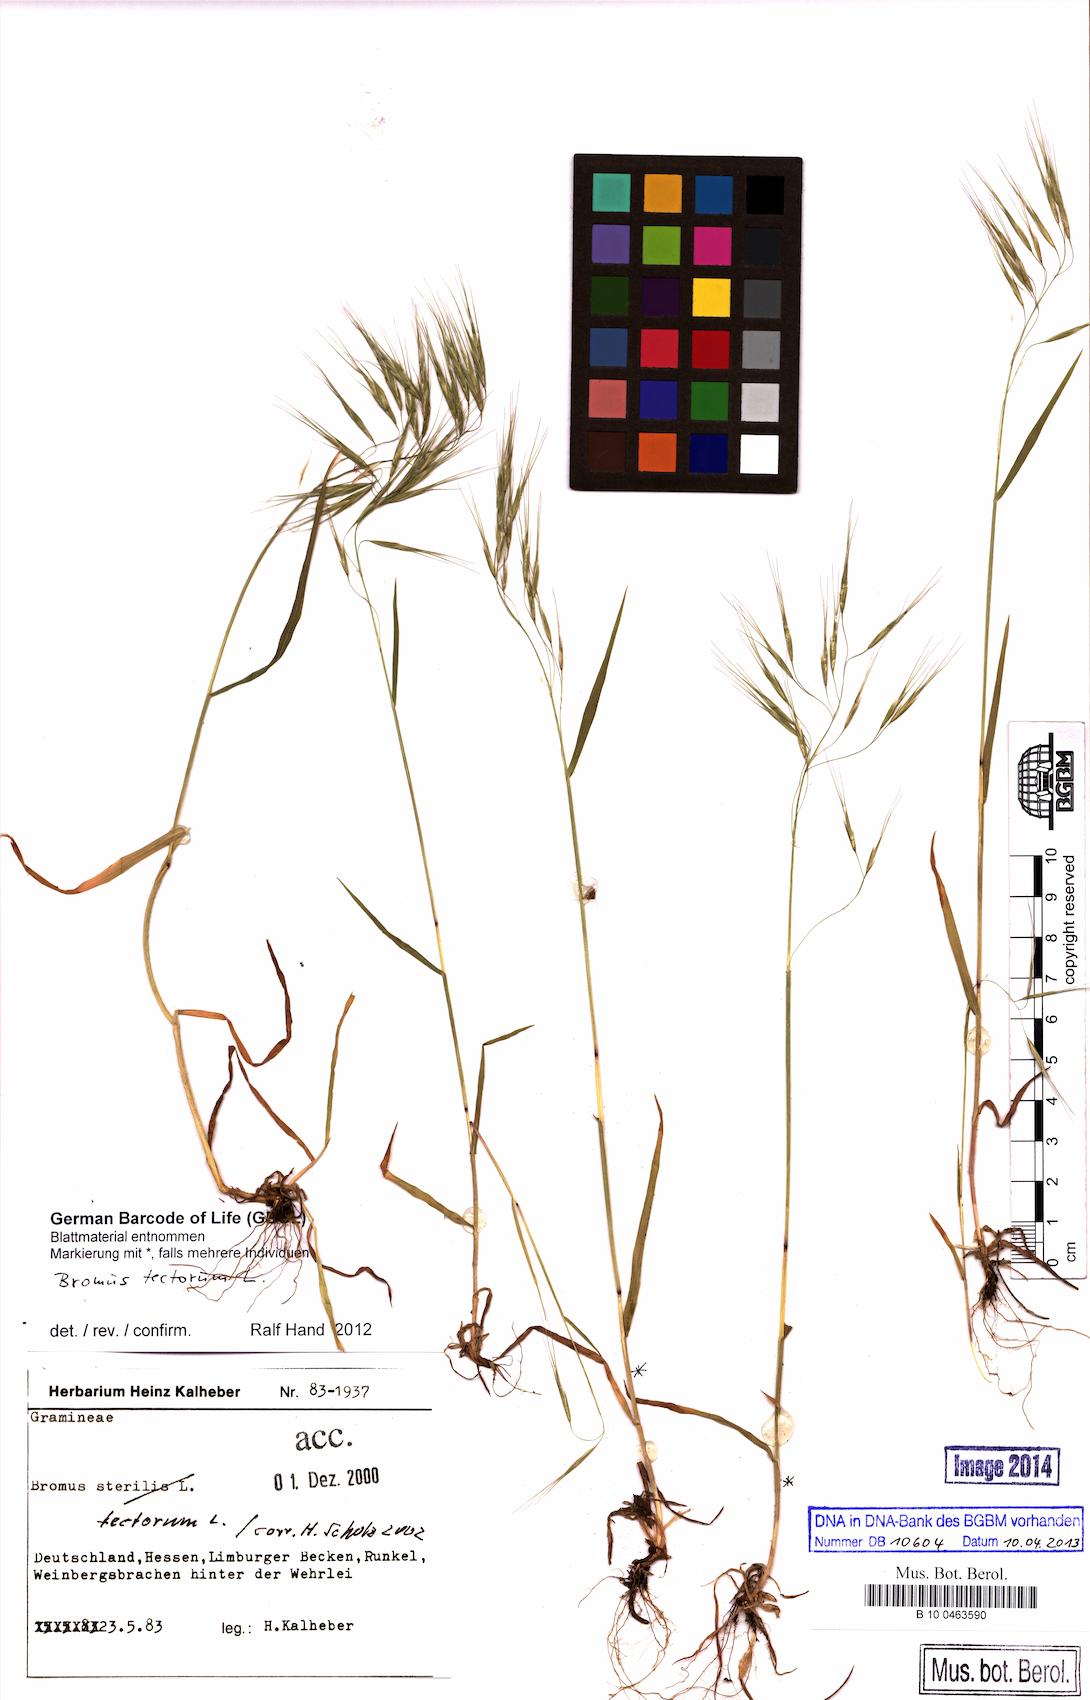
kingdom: Plantae
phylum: Tracheophyta
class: Liliopsida
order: Poales
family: Poaceae
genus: Bromus
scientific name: Bromus tectorum
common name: Cheatgrass
